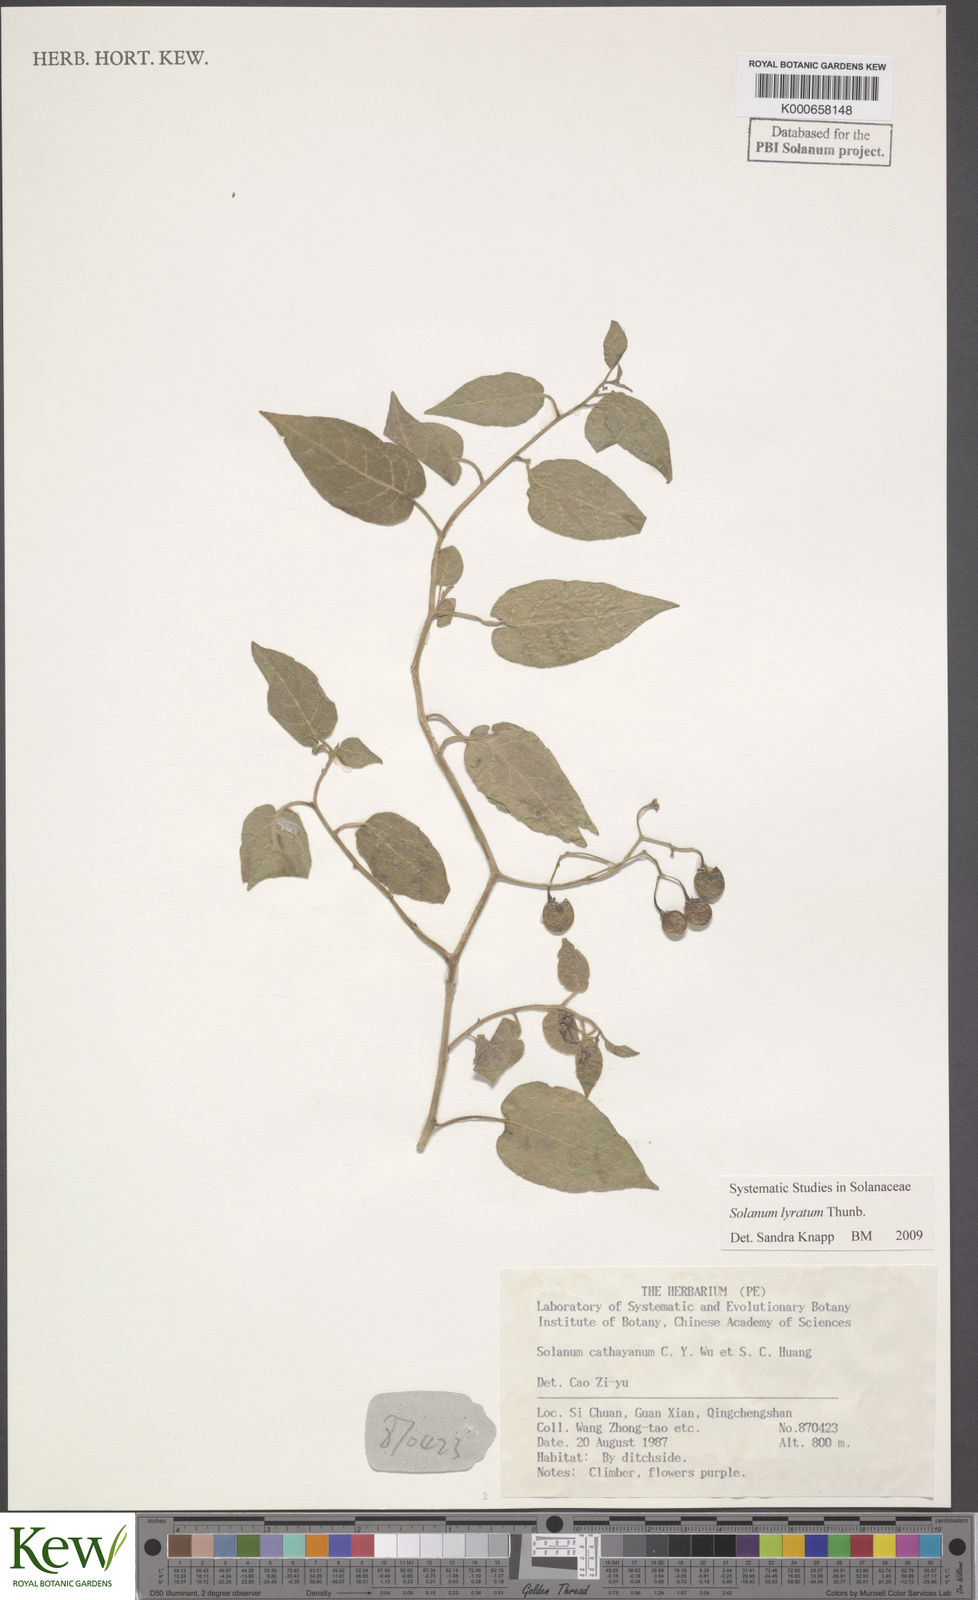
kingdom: Plantae
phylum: Tracheophyta
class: Magnoliopsida
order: Solanales
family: Solanaceae
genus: Solanum
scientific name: Solanum lyratum
